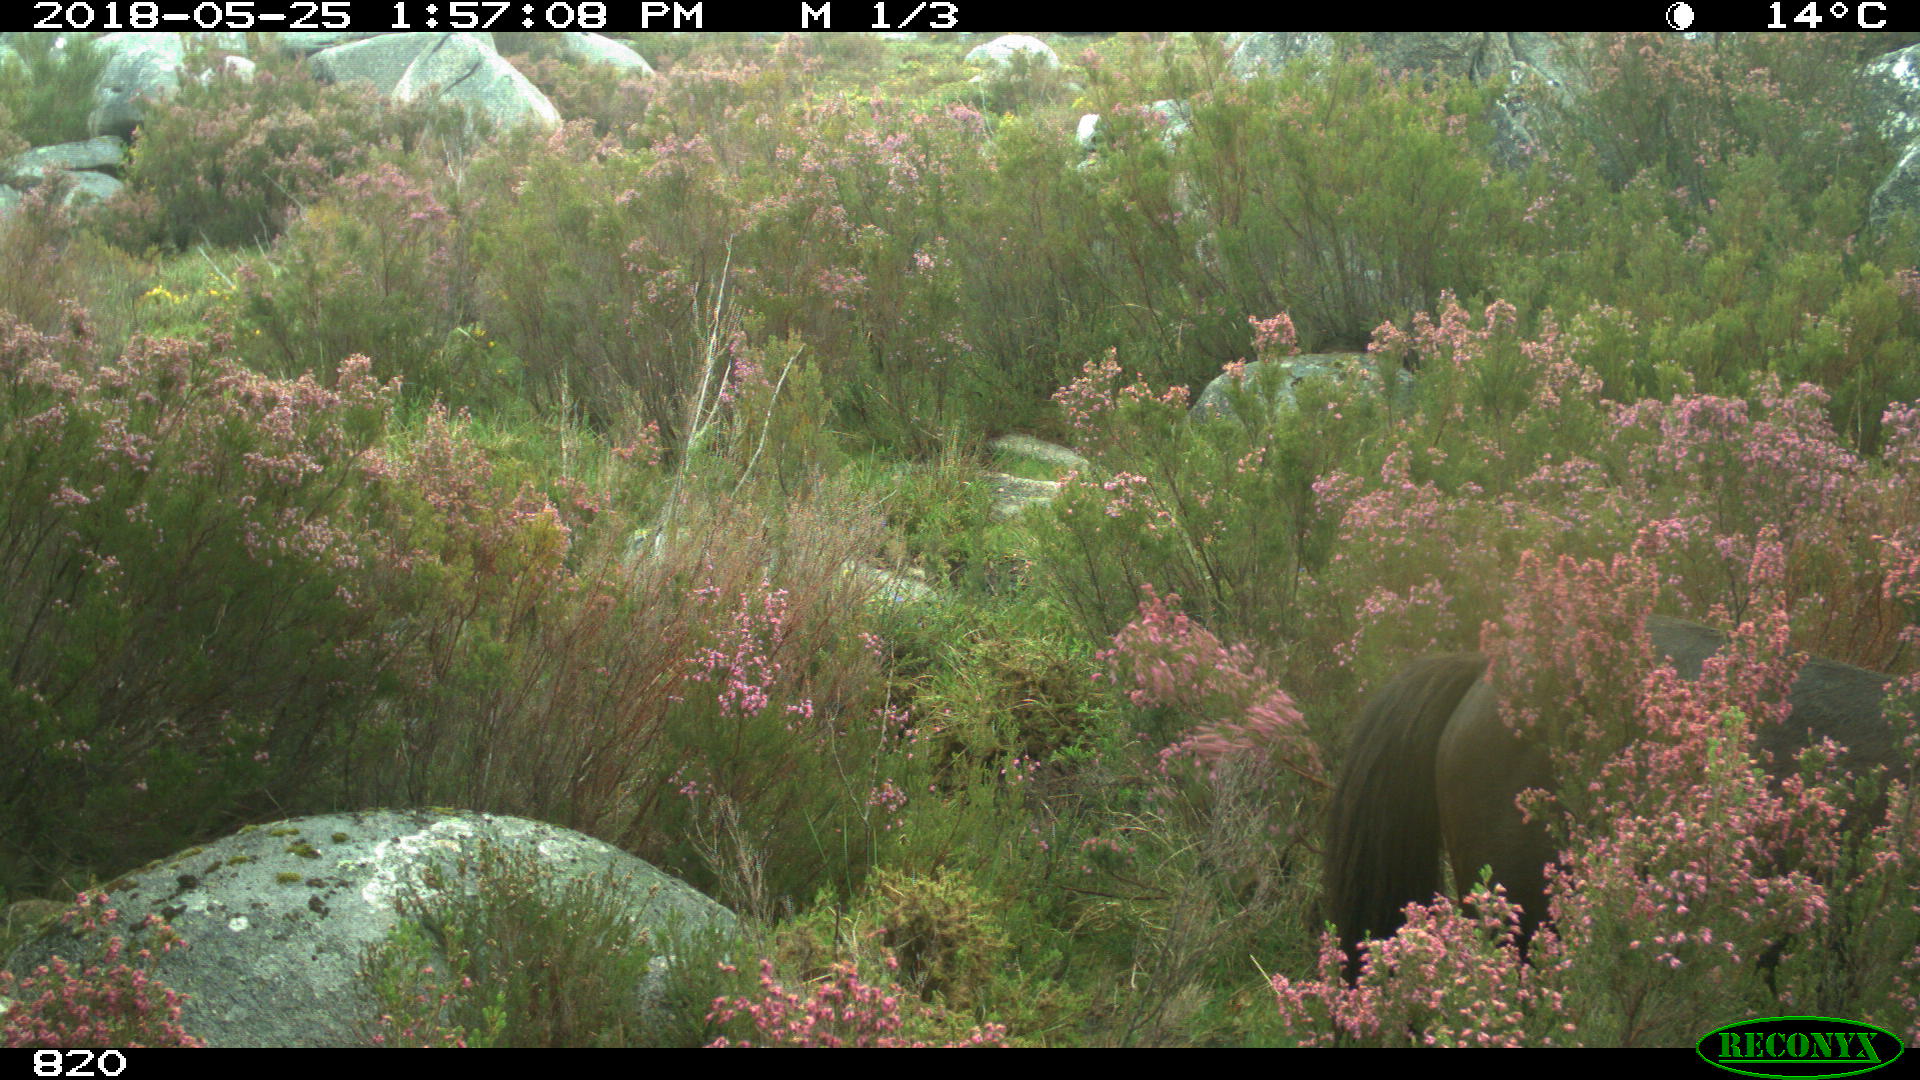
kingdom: Animalia
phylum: Chordata
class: Mammalia
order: Perissodactyla
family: Equidae
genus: Equus
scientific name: Equus caballus
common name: Horse
